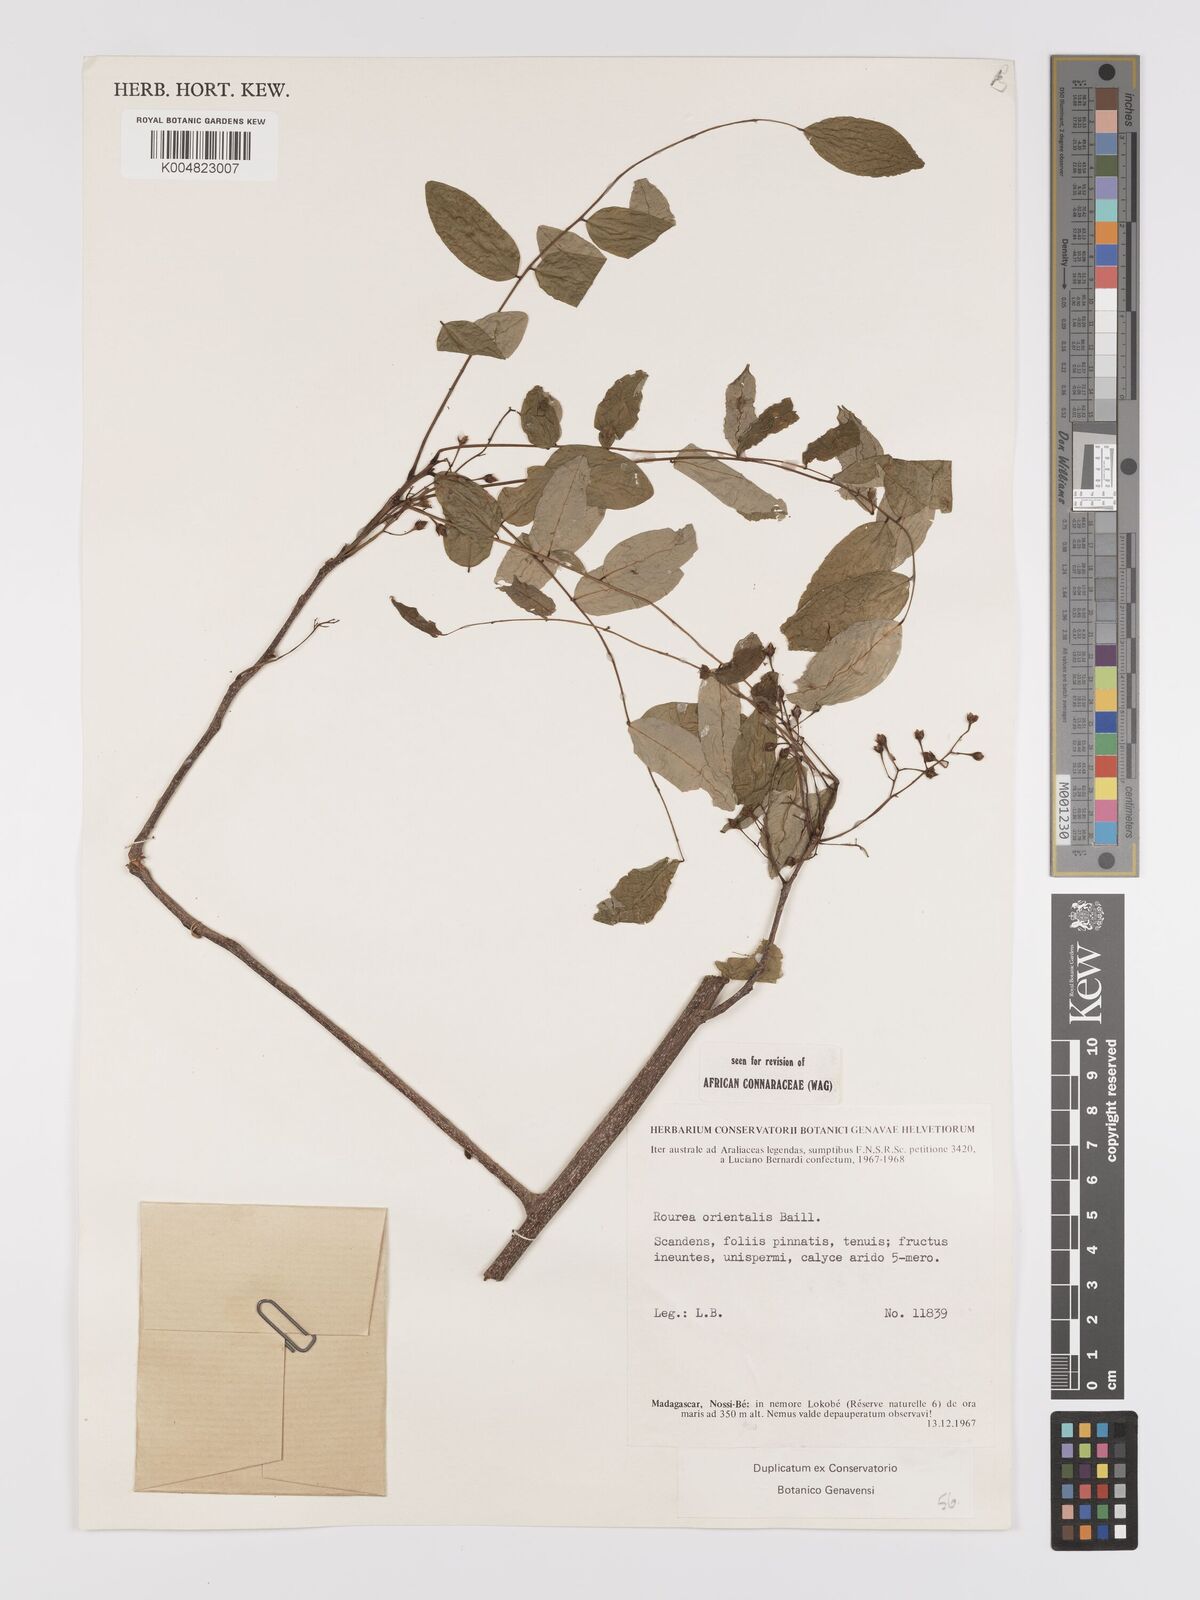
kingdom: Plantae
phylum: Tracheophyta
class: Magnoliopsida
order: Oxalidales
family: Connaraceae
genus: Rourea
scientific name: Rourea orientalis
